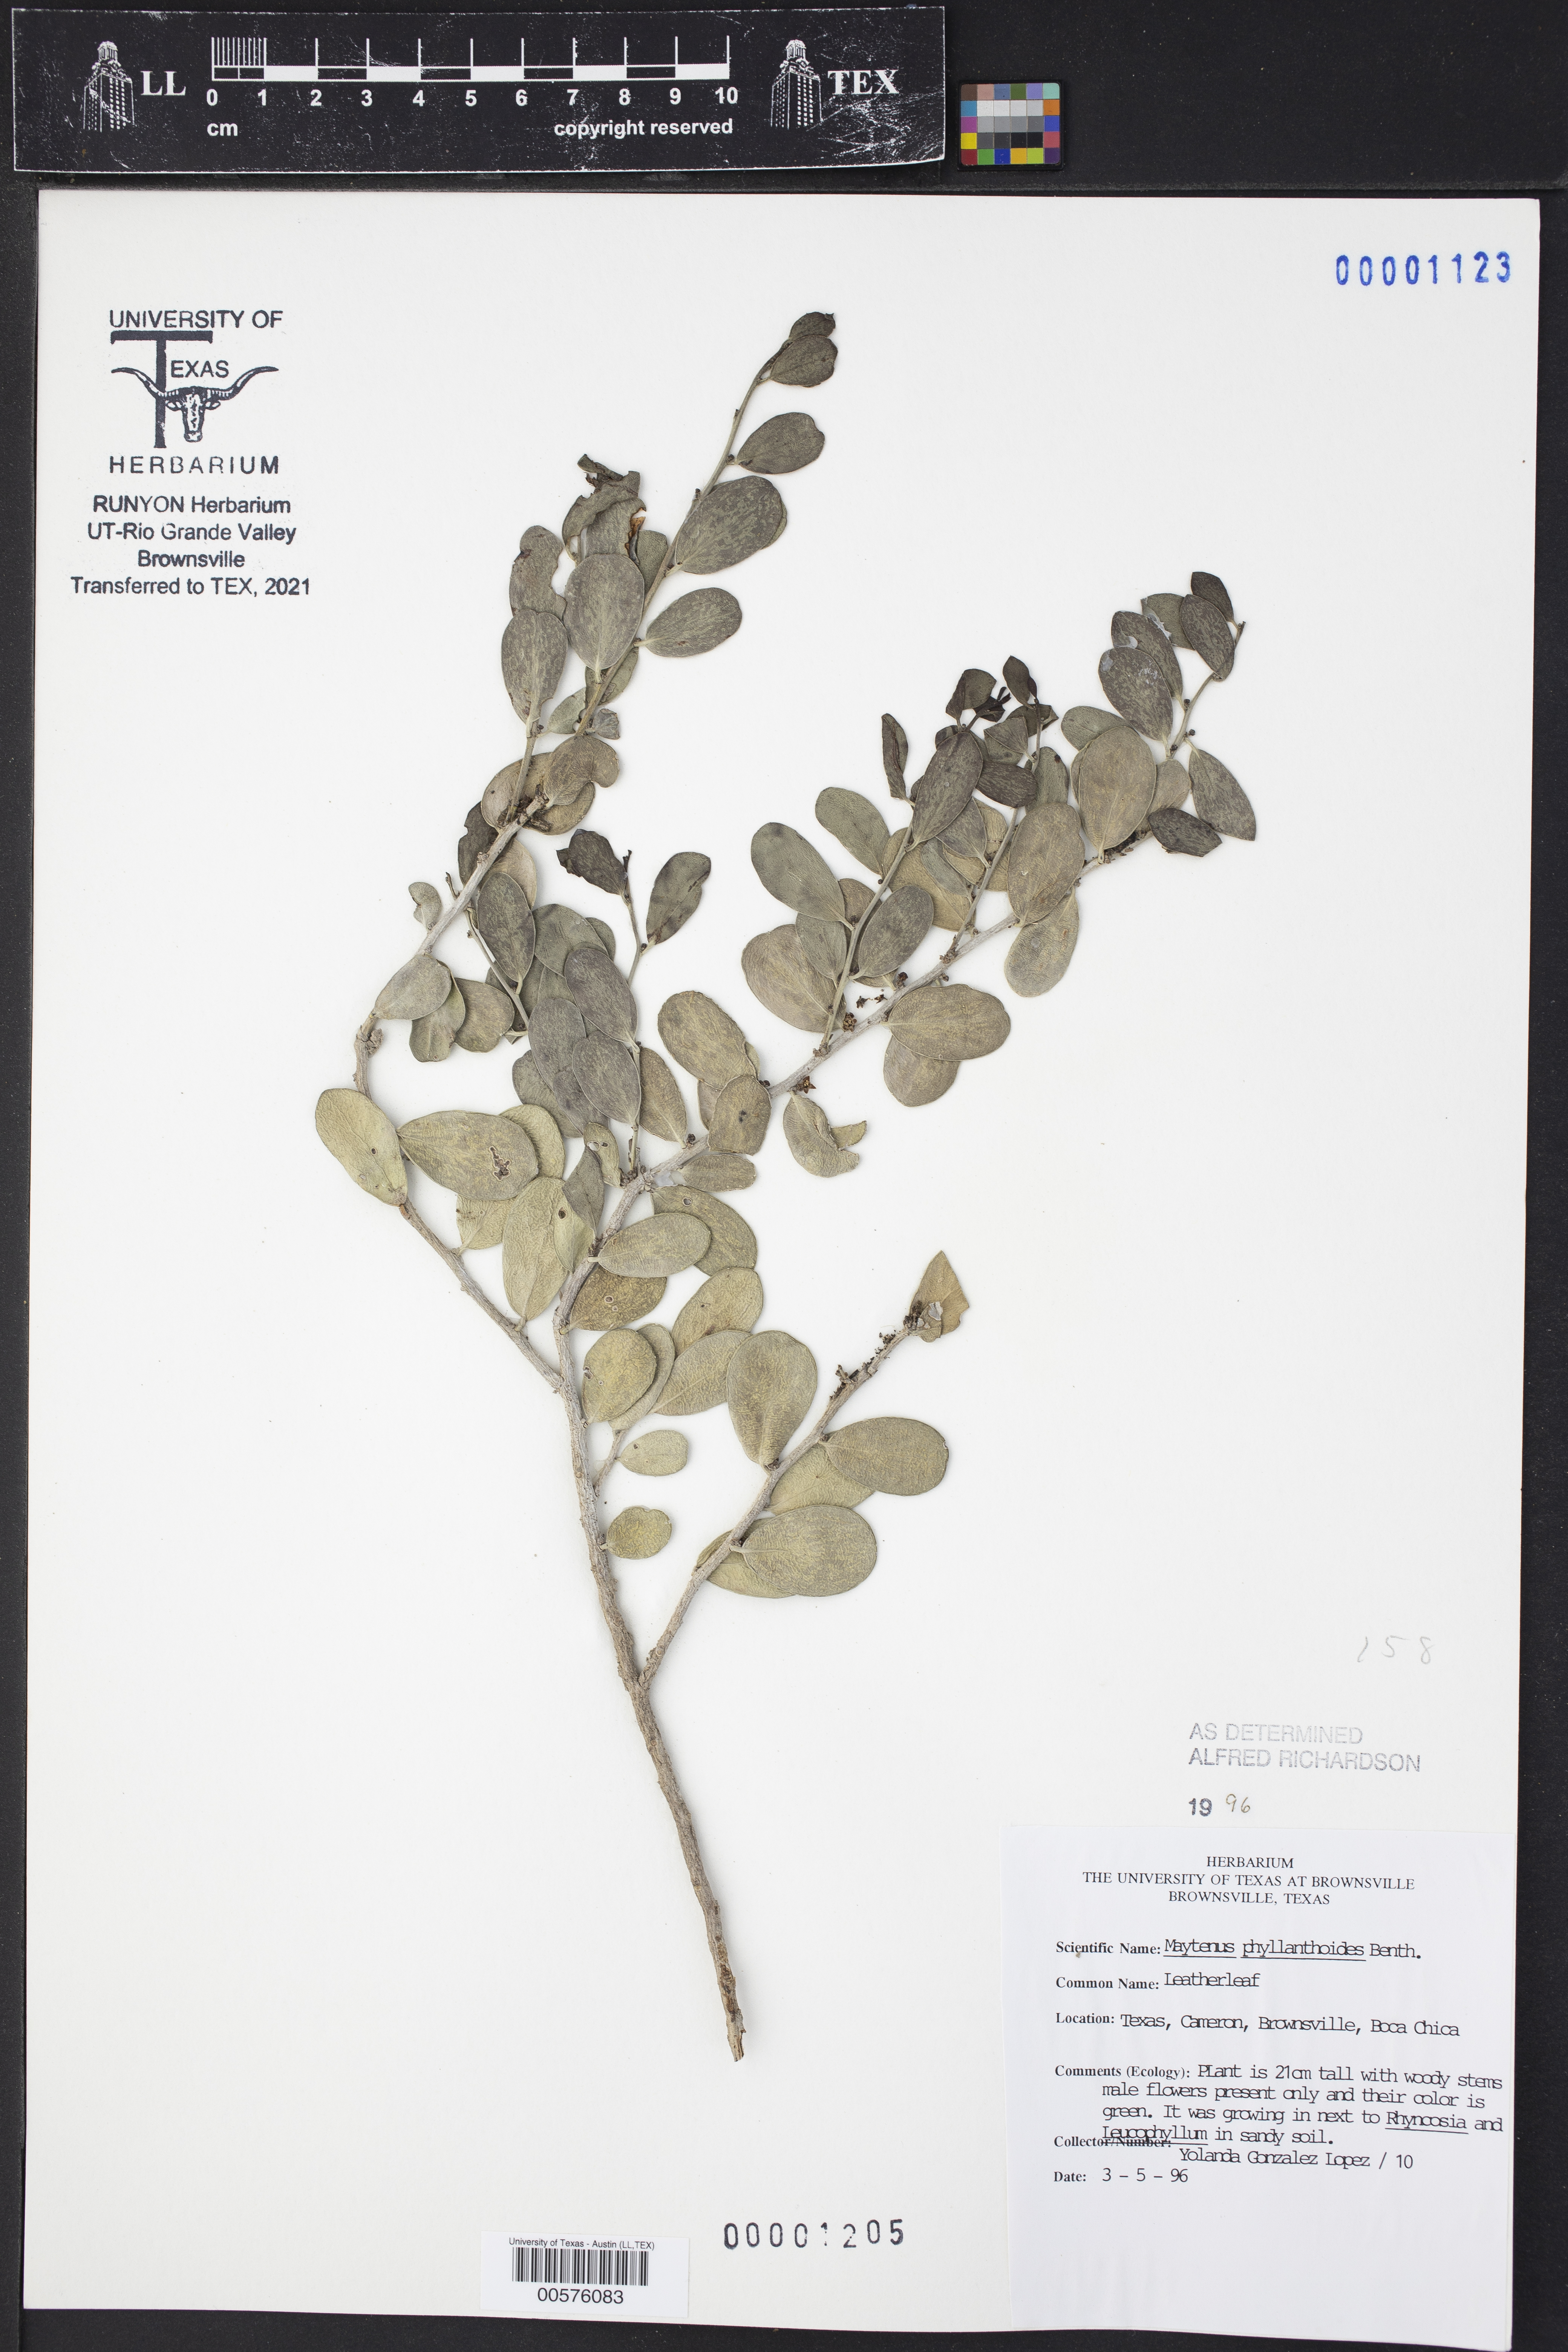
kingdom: Plantae
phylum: Tracheophyta
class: Magnoliopsida
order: Celastrales
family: Celastraceae
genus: Tricerma
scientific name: Tricerma phyllanthoides
